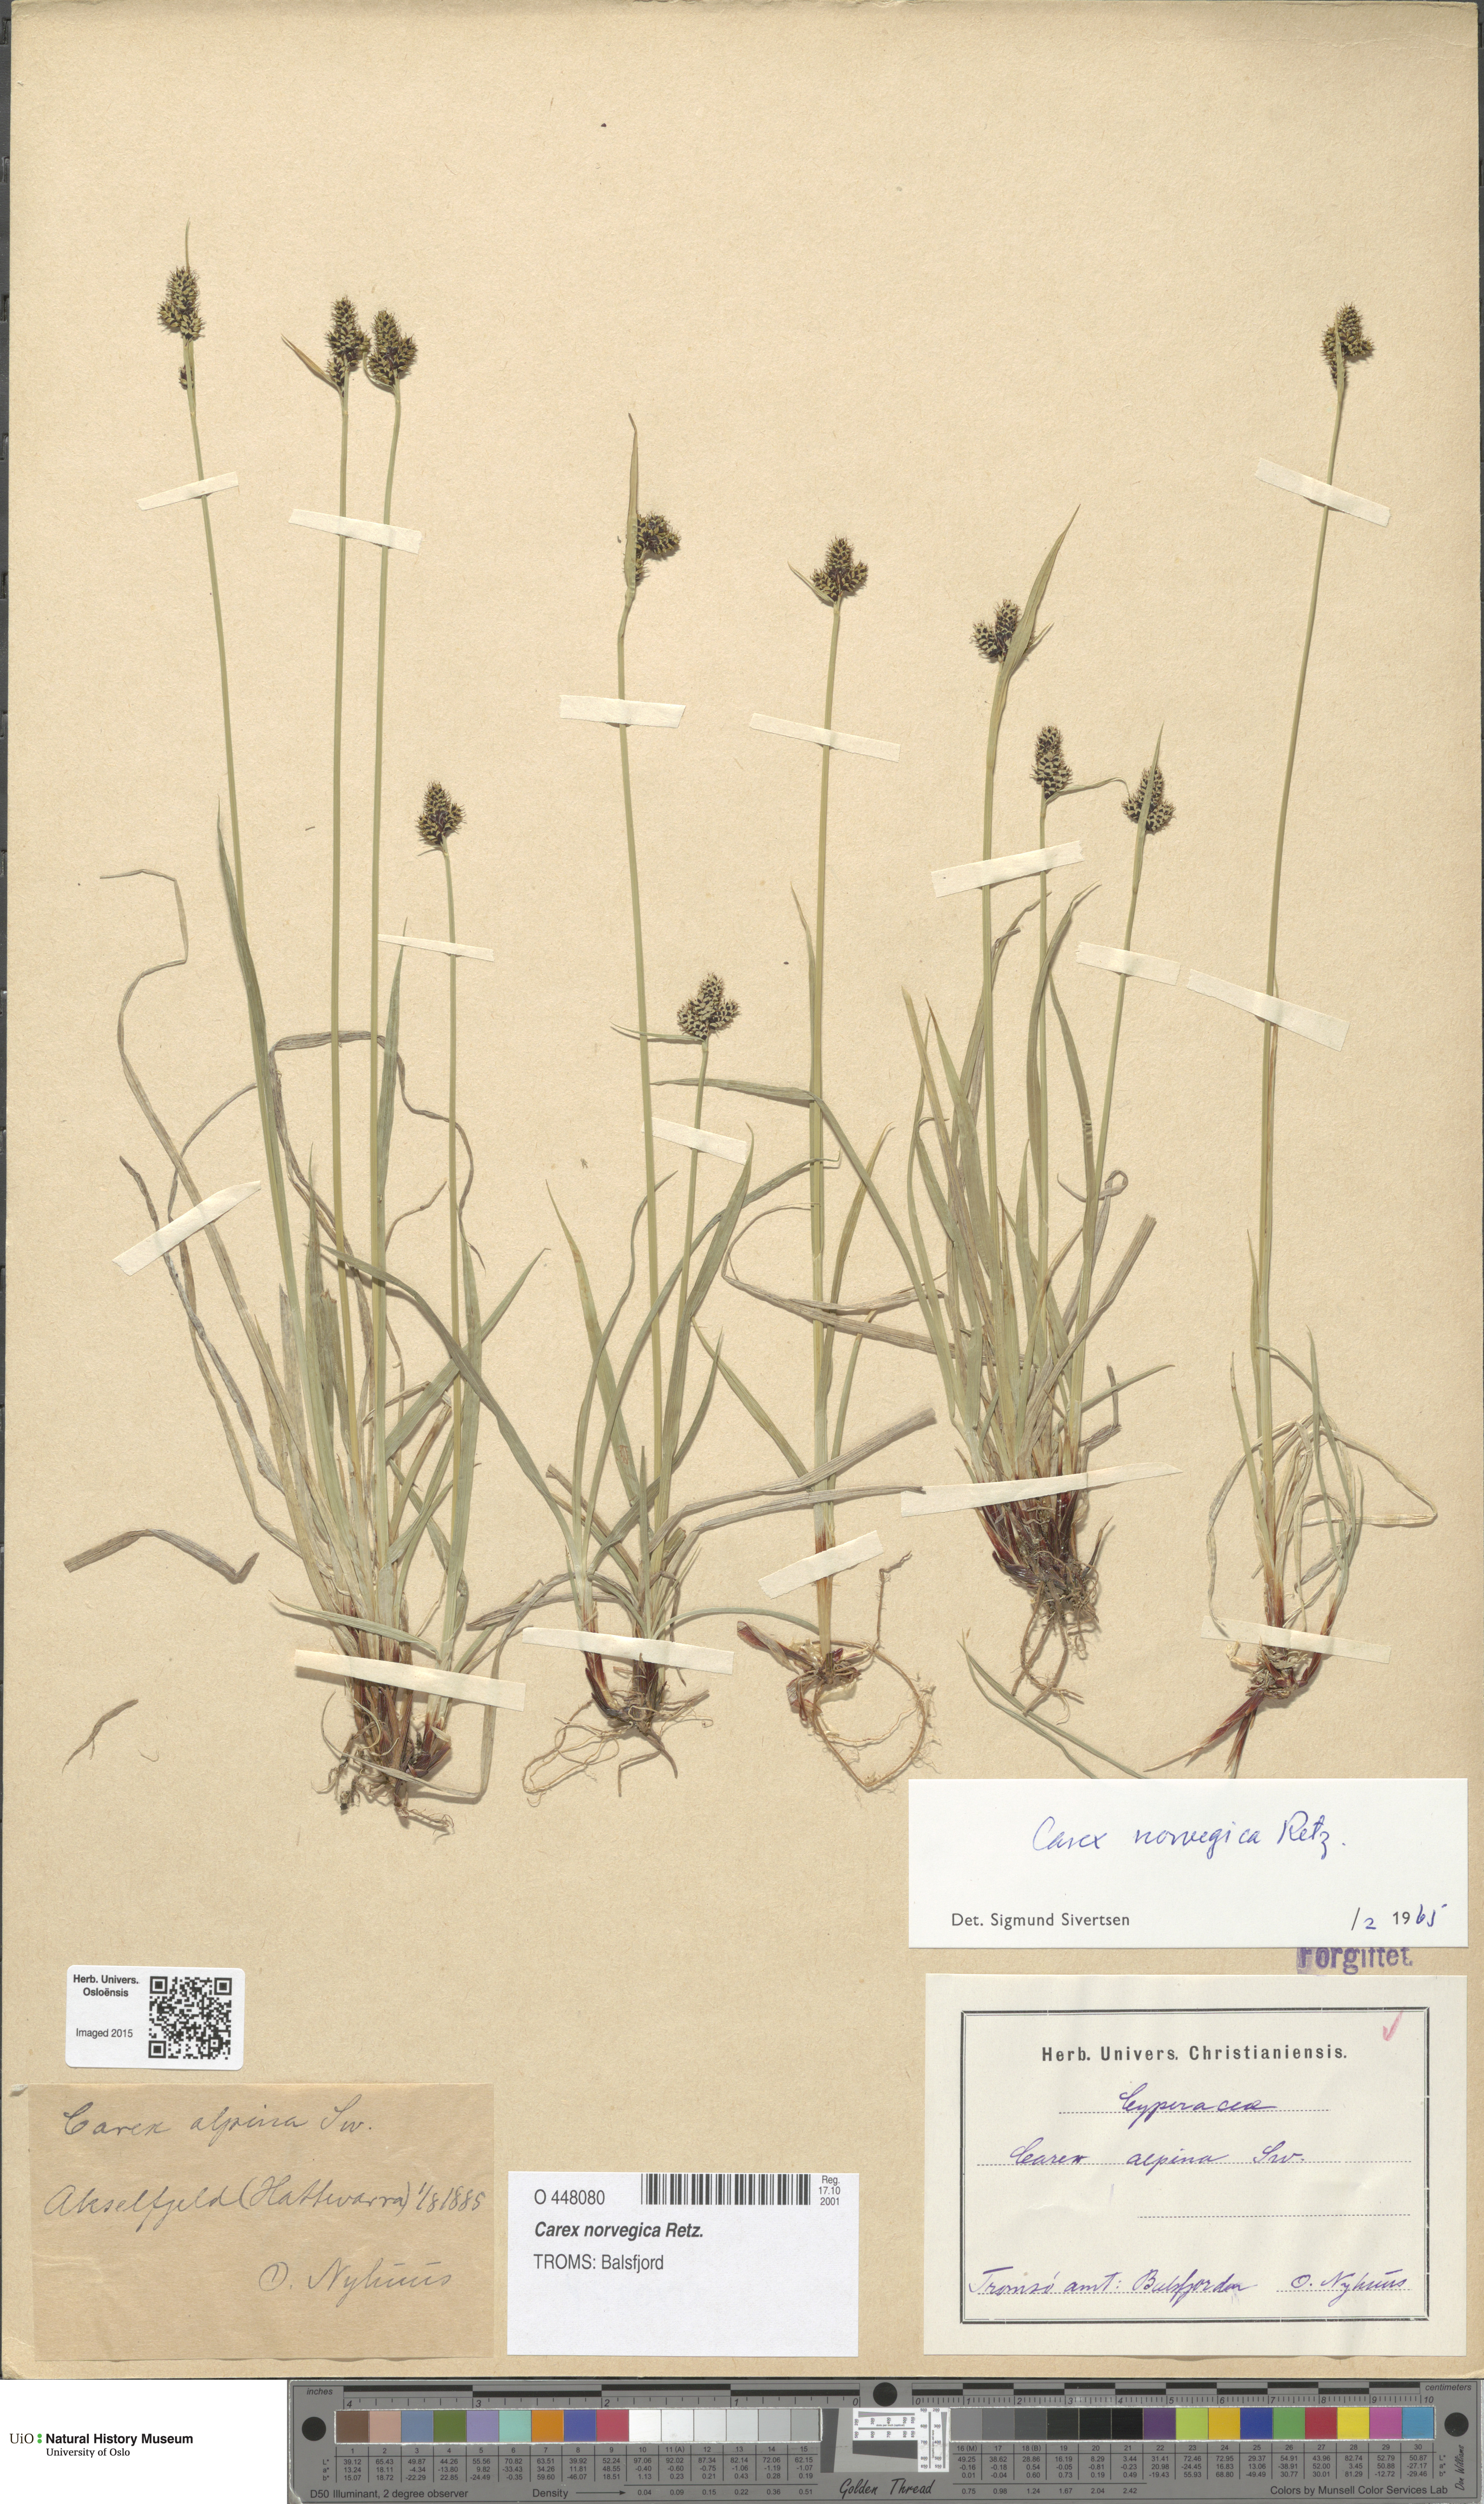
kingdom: Plantae
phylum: Tracheophyta
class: Liliopsida
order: Poales
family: Cyperaceae
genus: Carex
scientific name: Carex norvegica
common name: Close-headed alpine-sedge
